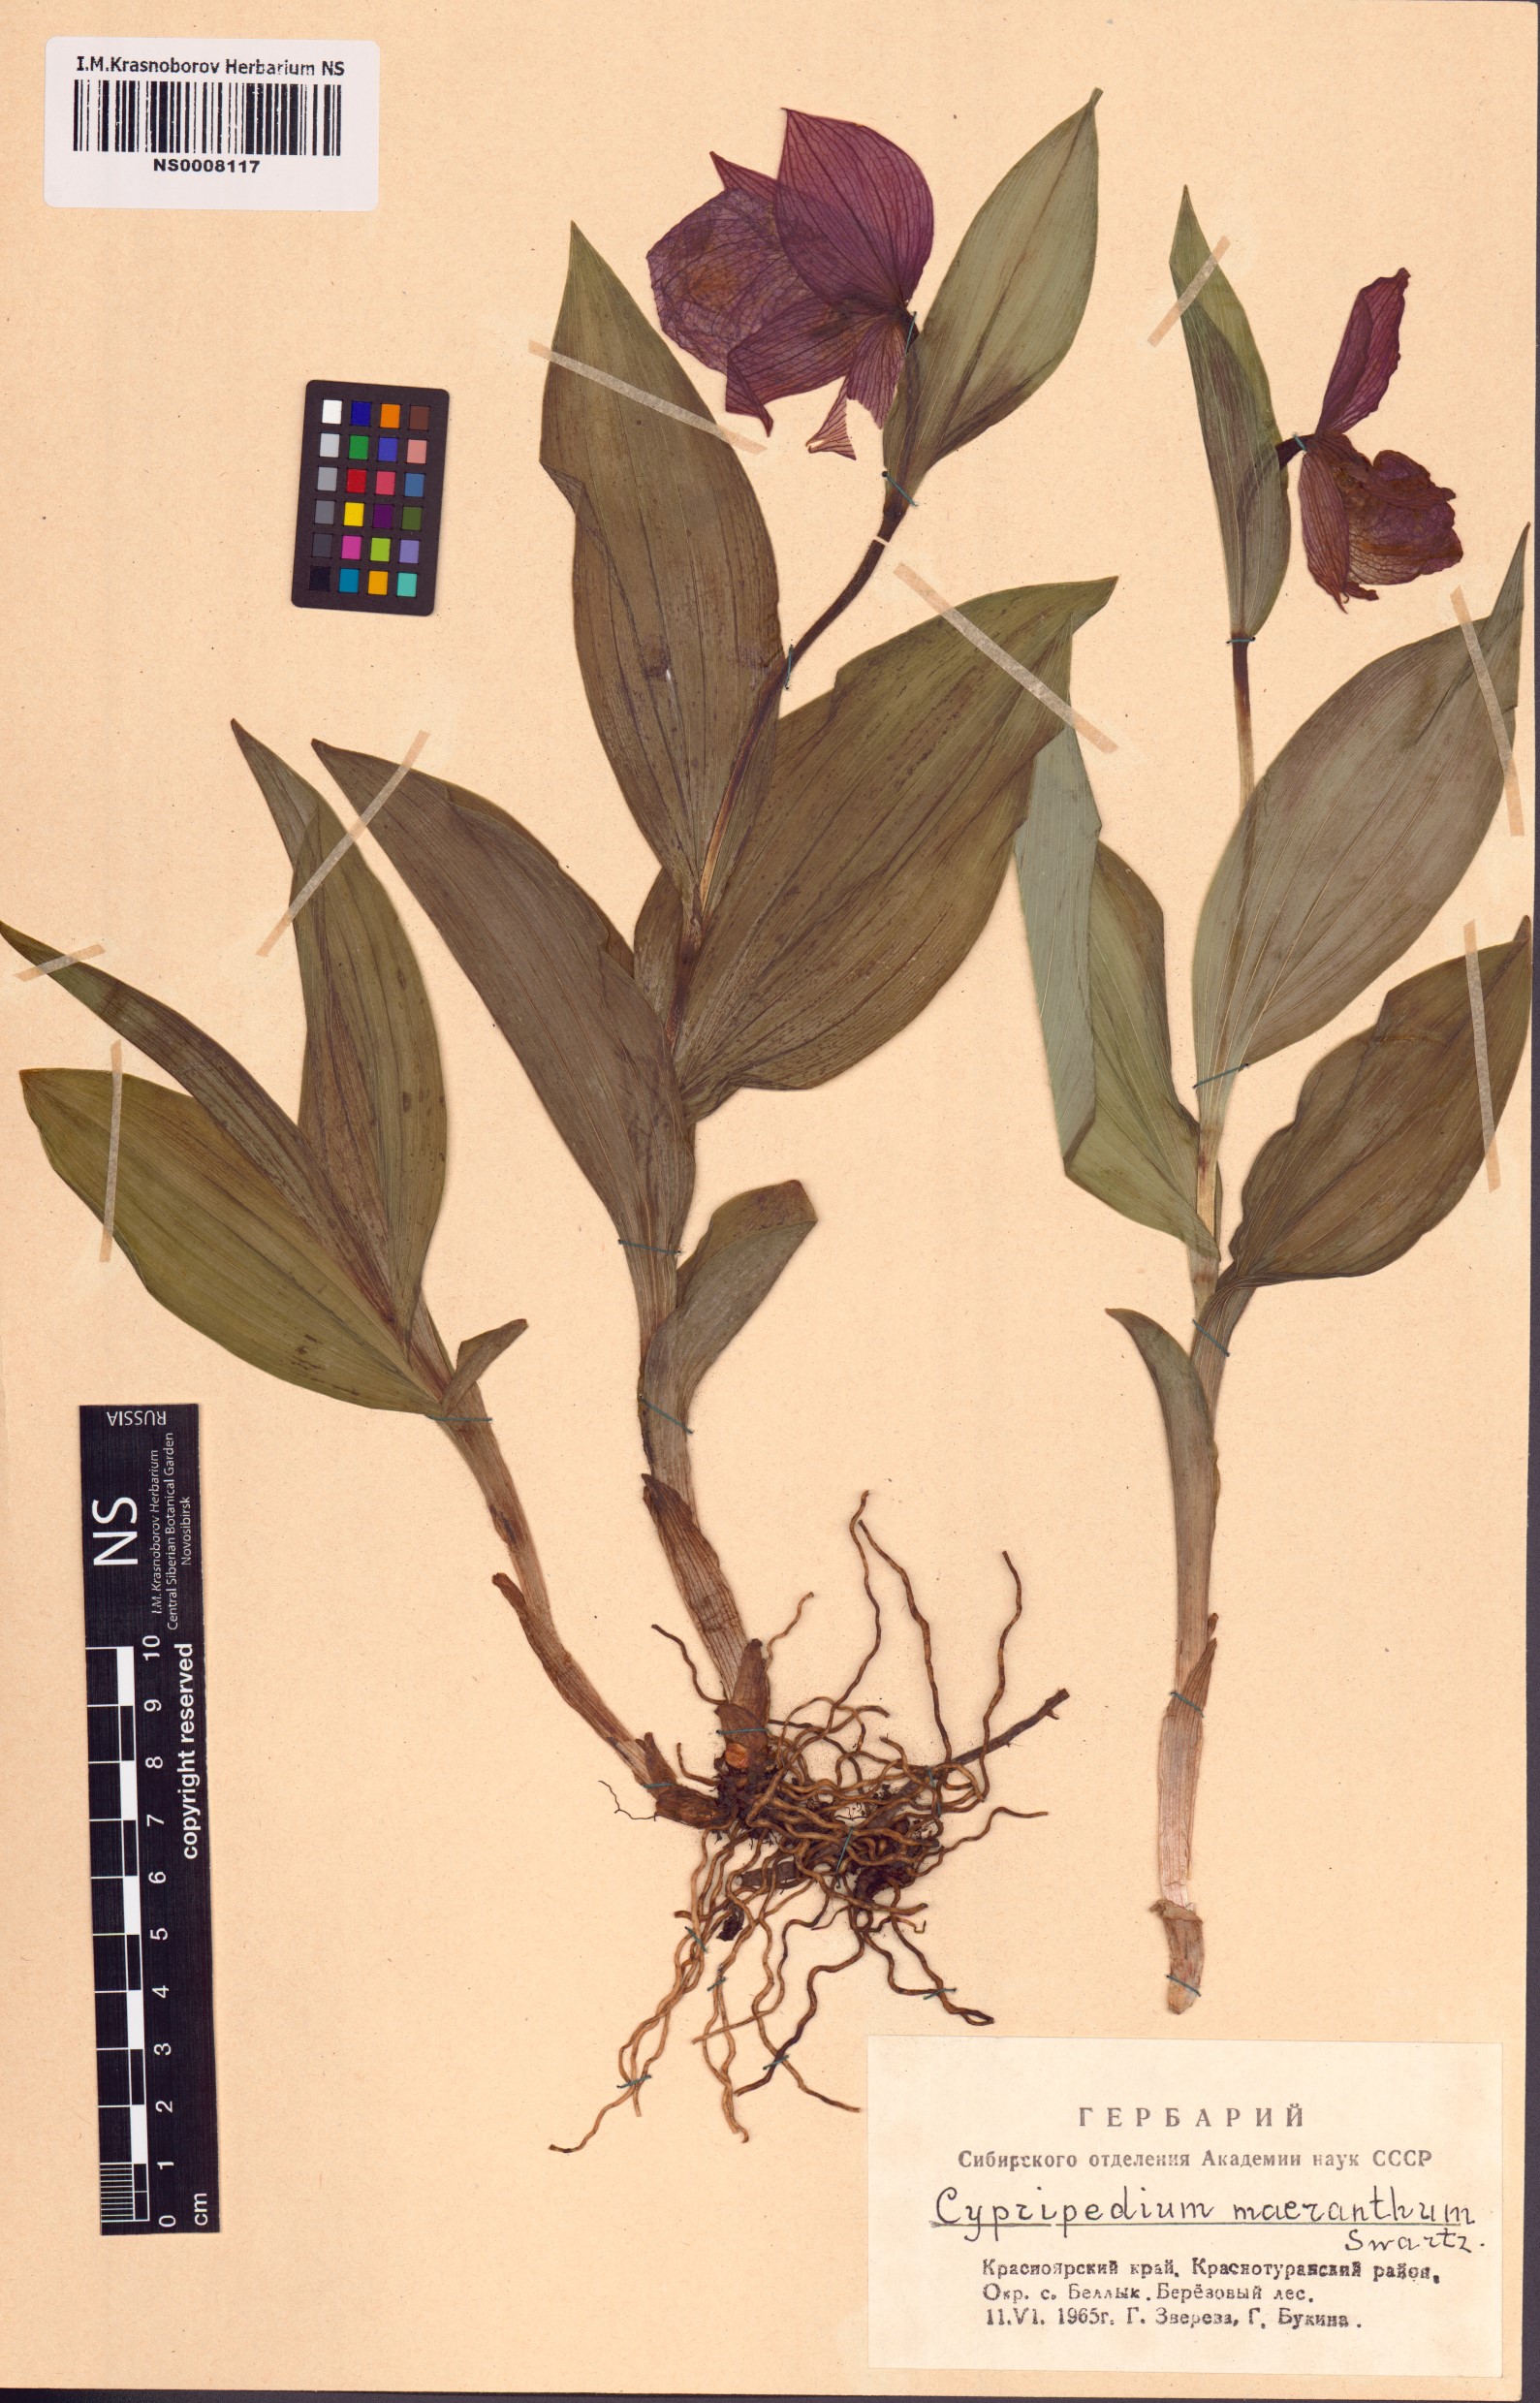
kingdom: Plantae
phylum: Tracheophyta
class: Liliopsida
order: Asparagales
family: Orchidaceae
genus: Cypripedium
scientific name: Cypripedium macranthos
